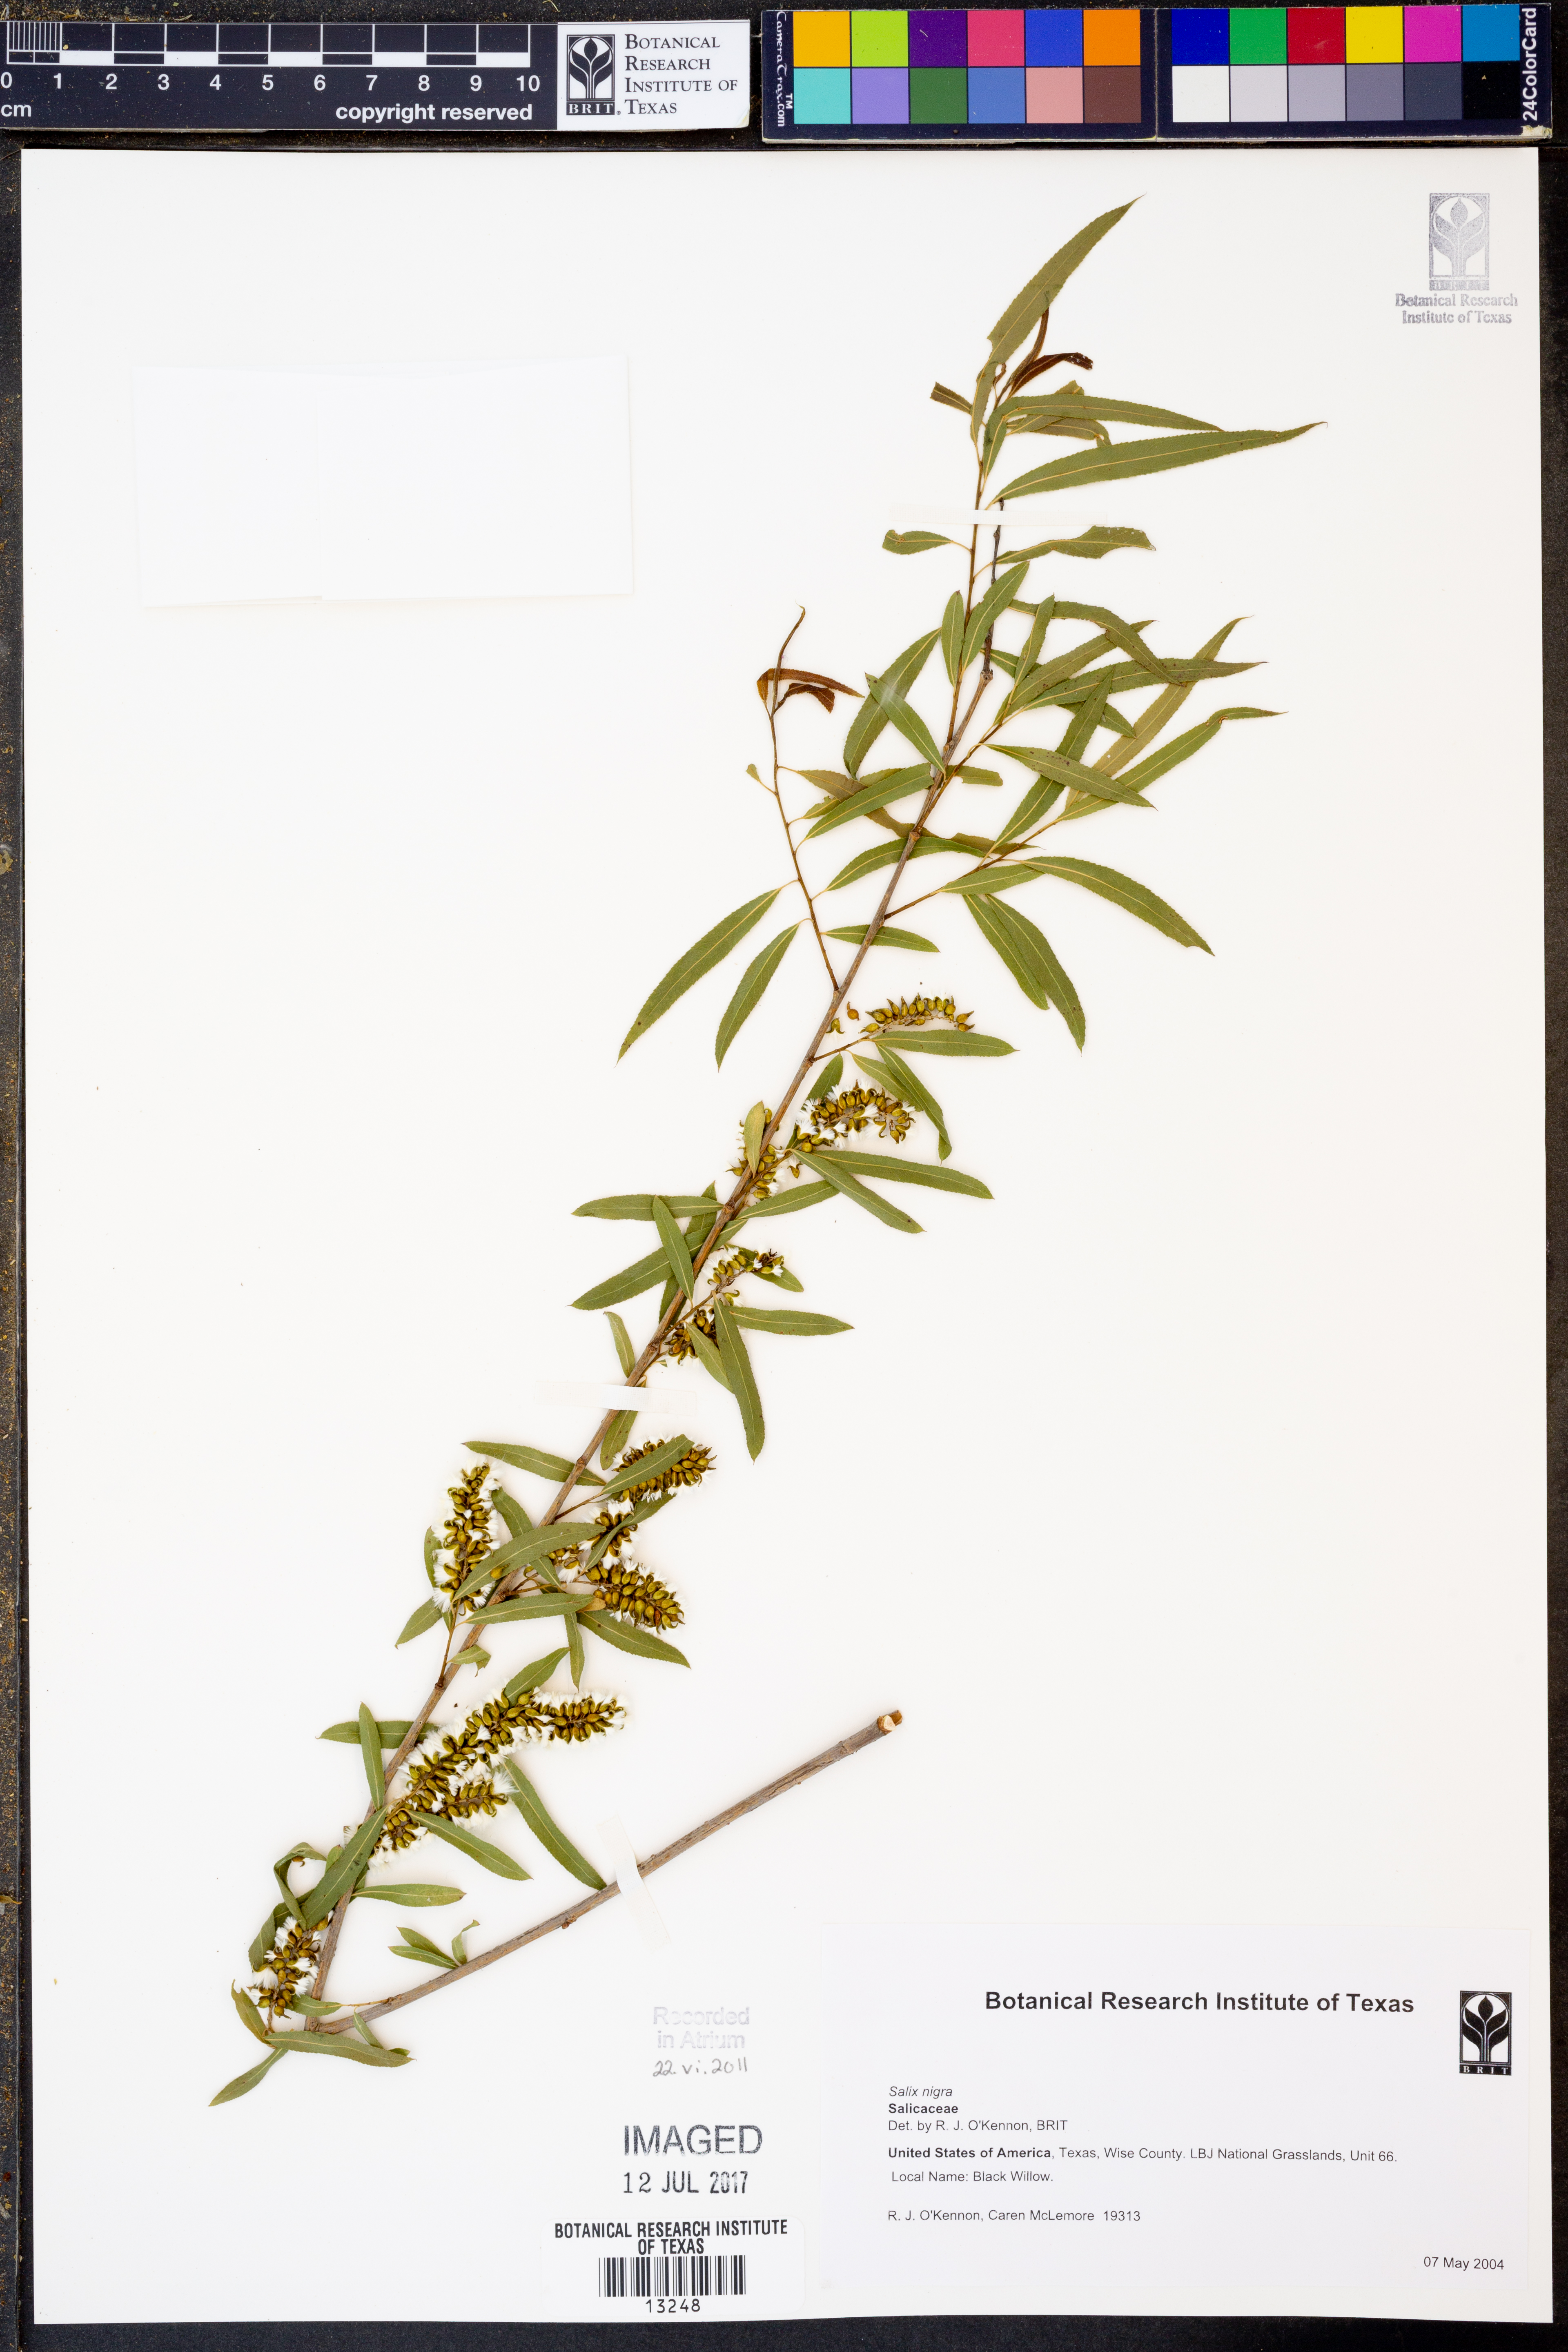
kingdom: Plantae
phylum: Tracheophyta
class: Magnoliopsida
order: Malpighiales
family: Salicaceae
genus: Salix
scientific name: Salix nigra
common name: Black willow
